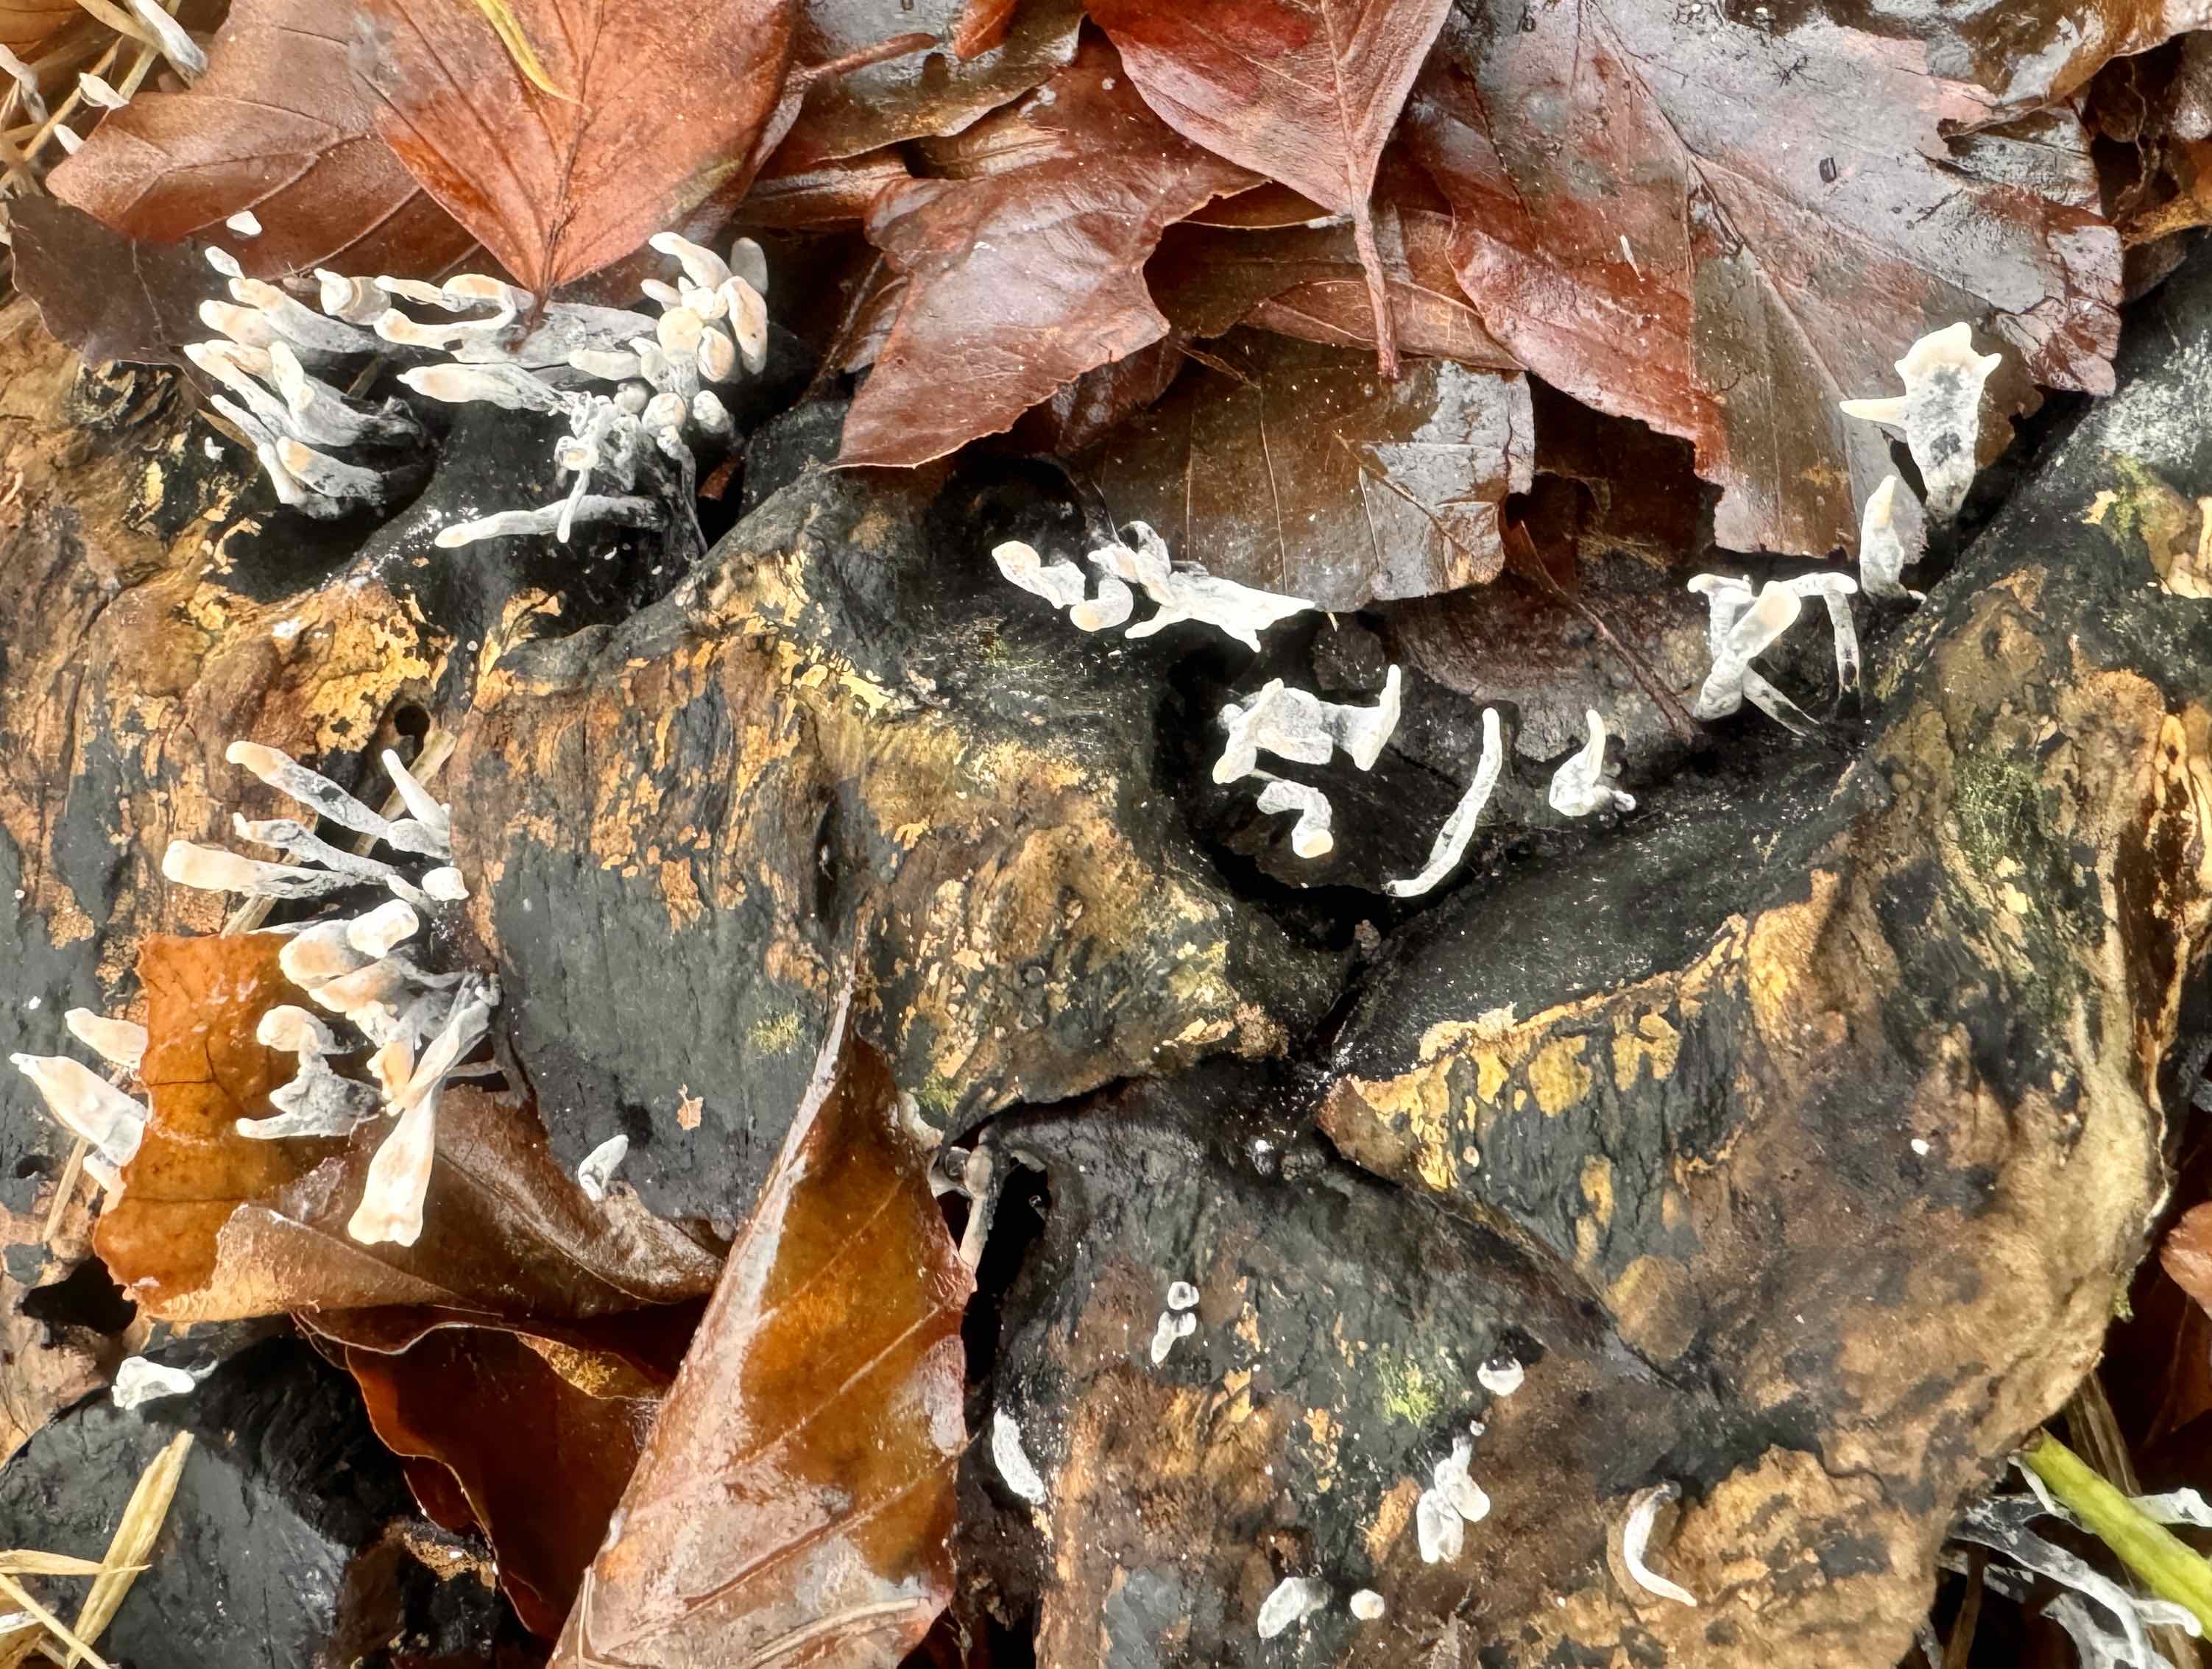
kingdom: Fungi
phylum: Ascomycota
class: Sordariomycetes
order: Xylariales
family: Xylariaceae
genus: Xylaria
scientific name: Xylaria hypoxylon
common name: grenet stødsvamp
